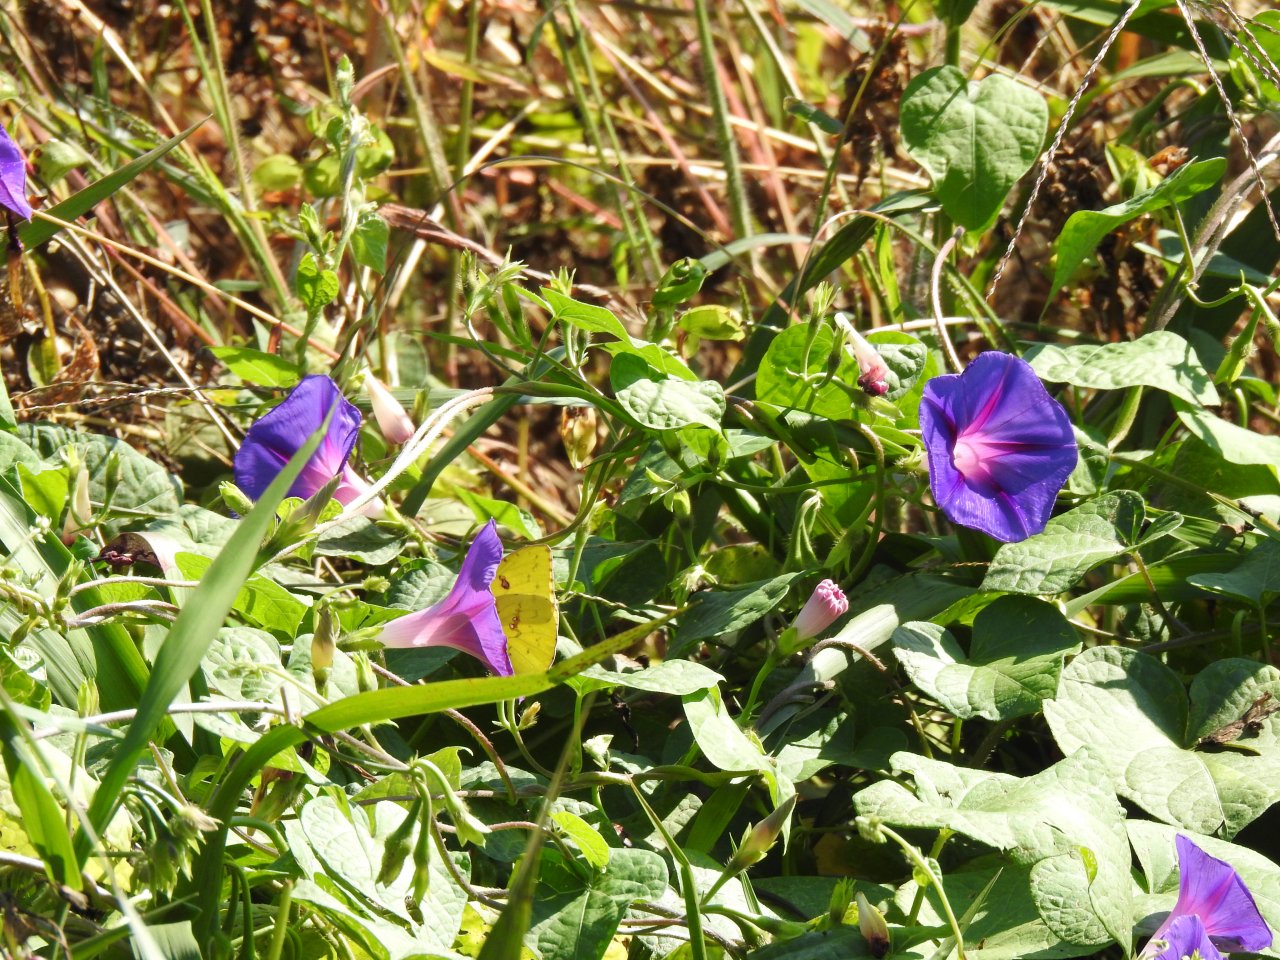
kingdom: Animalia
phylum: Arthropoda
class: Insecta
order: Lepidoptera
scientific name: Lepidoptera
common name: Butterflies
